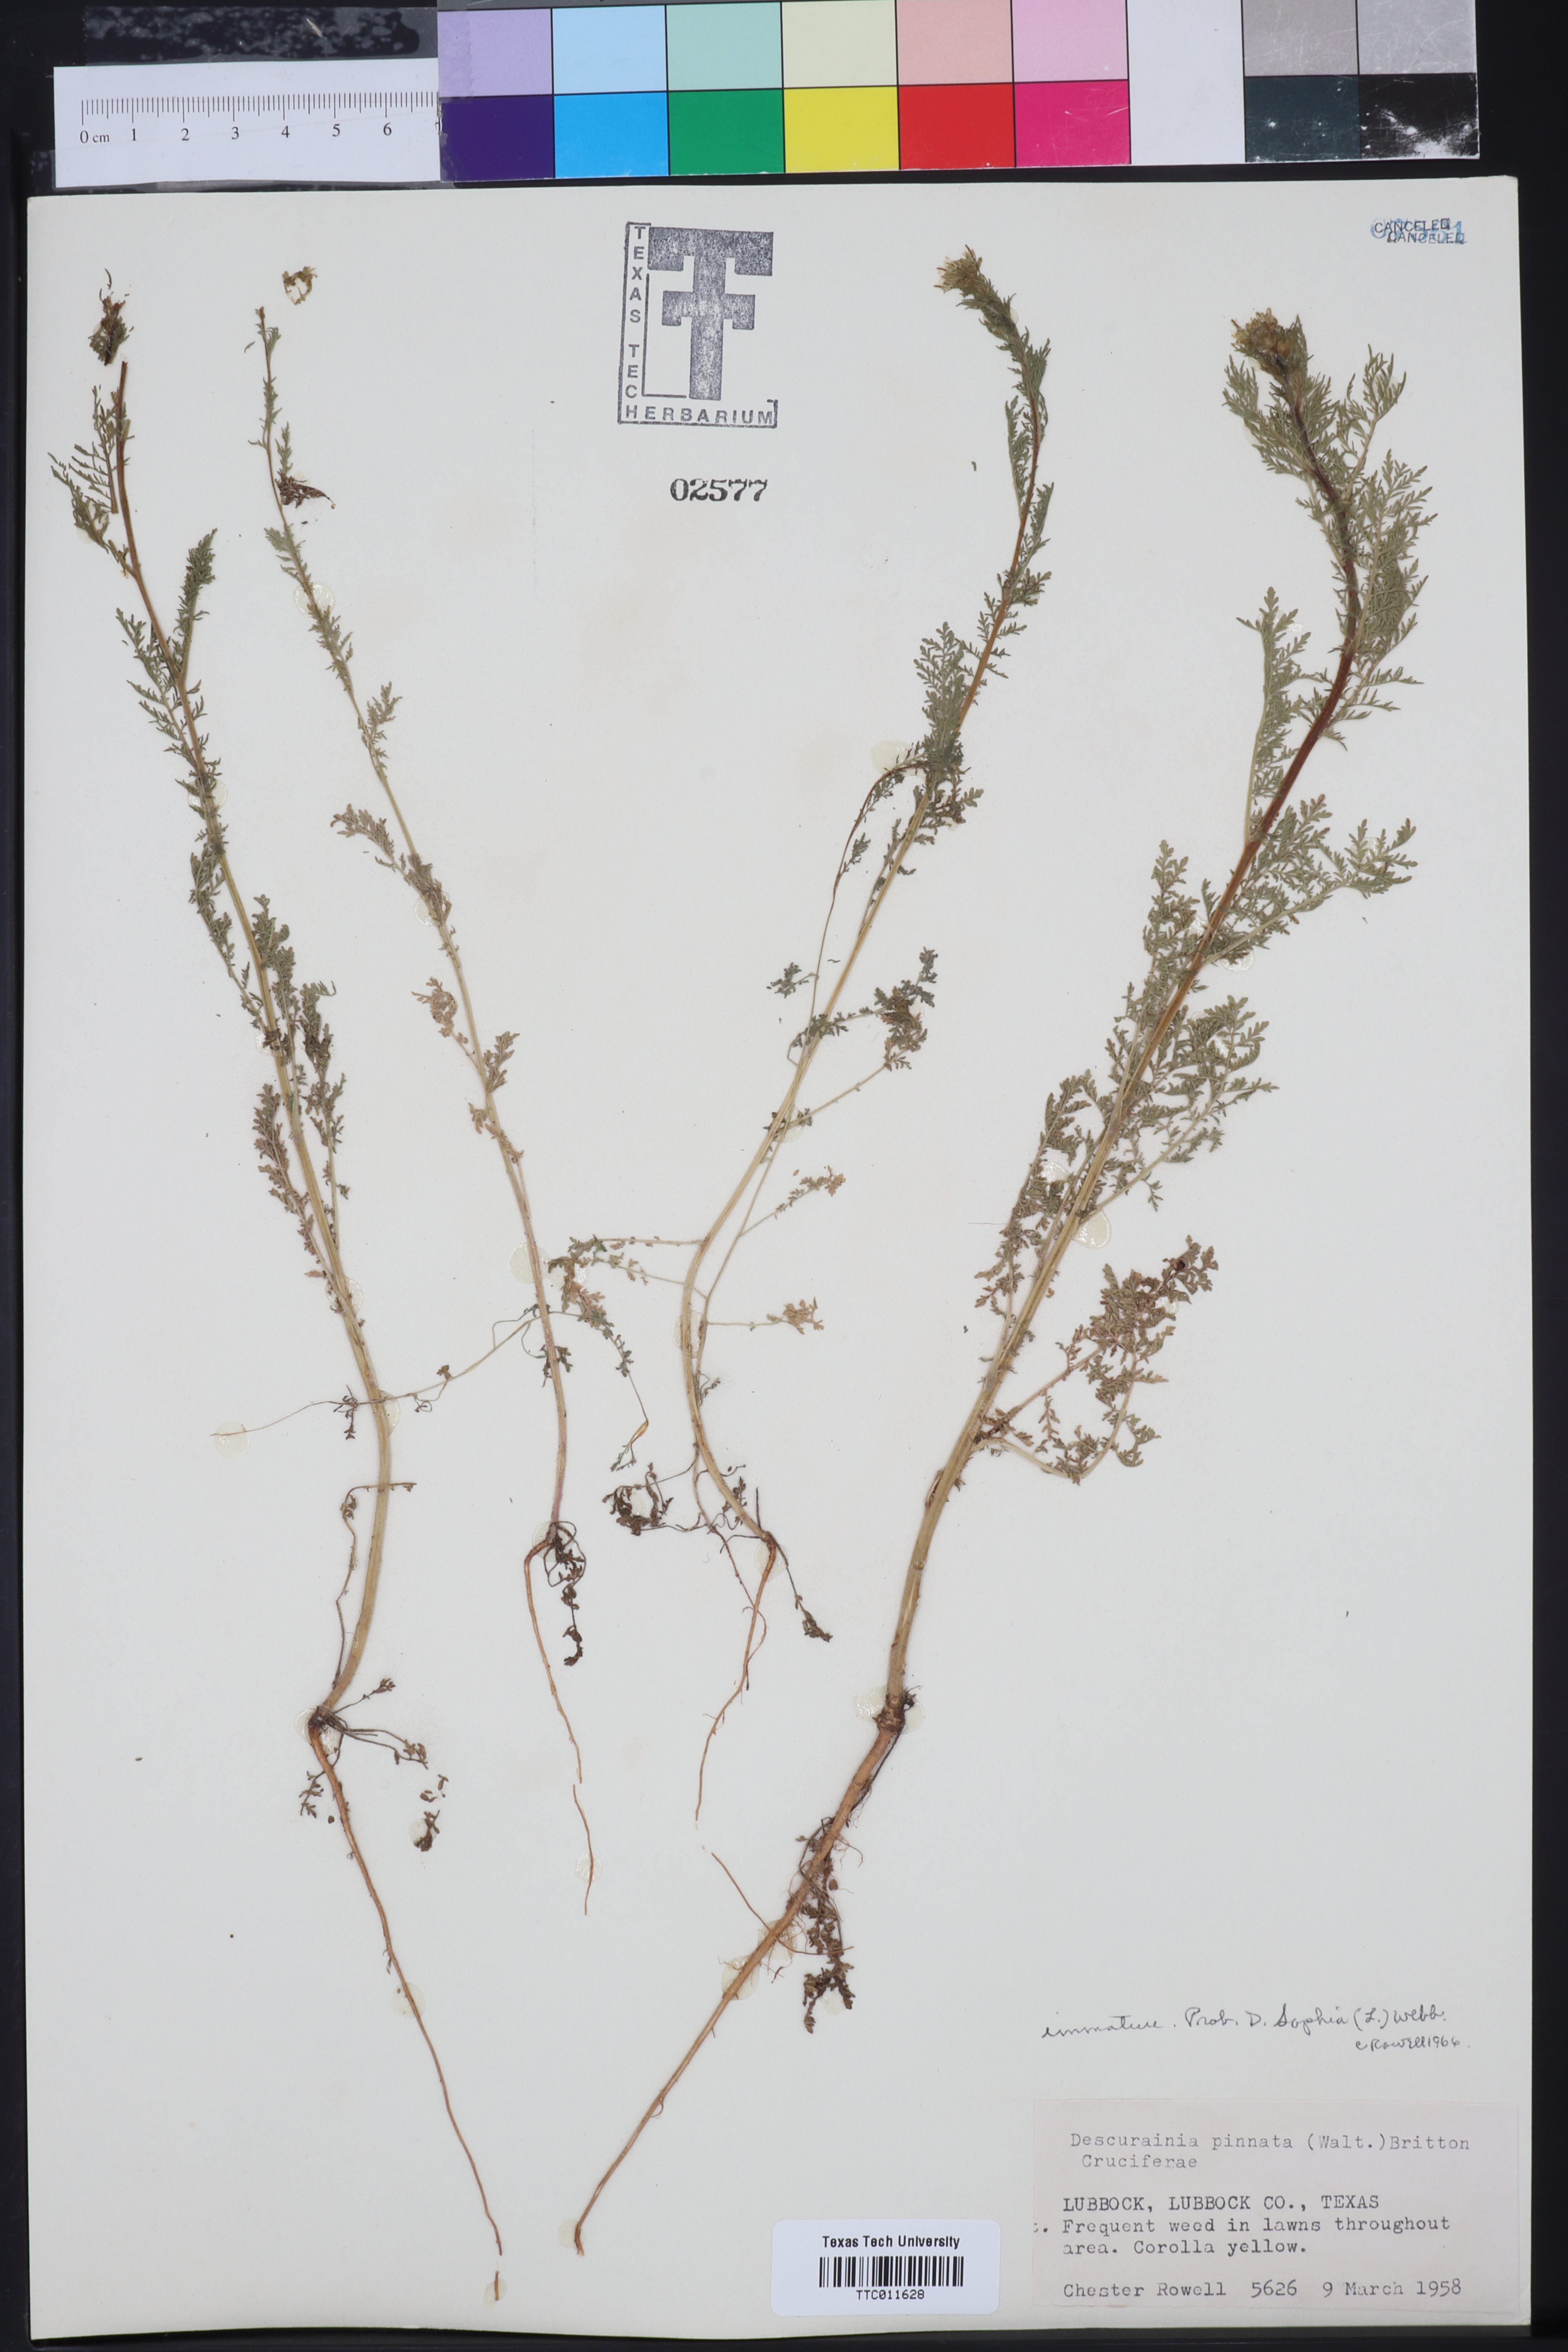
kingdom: Plantae
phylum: Tracheophyta
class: Magnoliopsida
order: Brassicales
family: Brassicaceae
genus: Descurainia
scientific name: Descurainia sophia
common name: Flixweed
